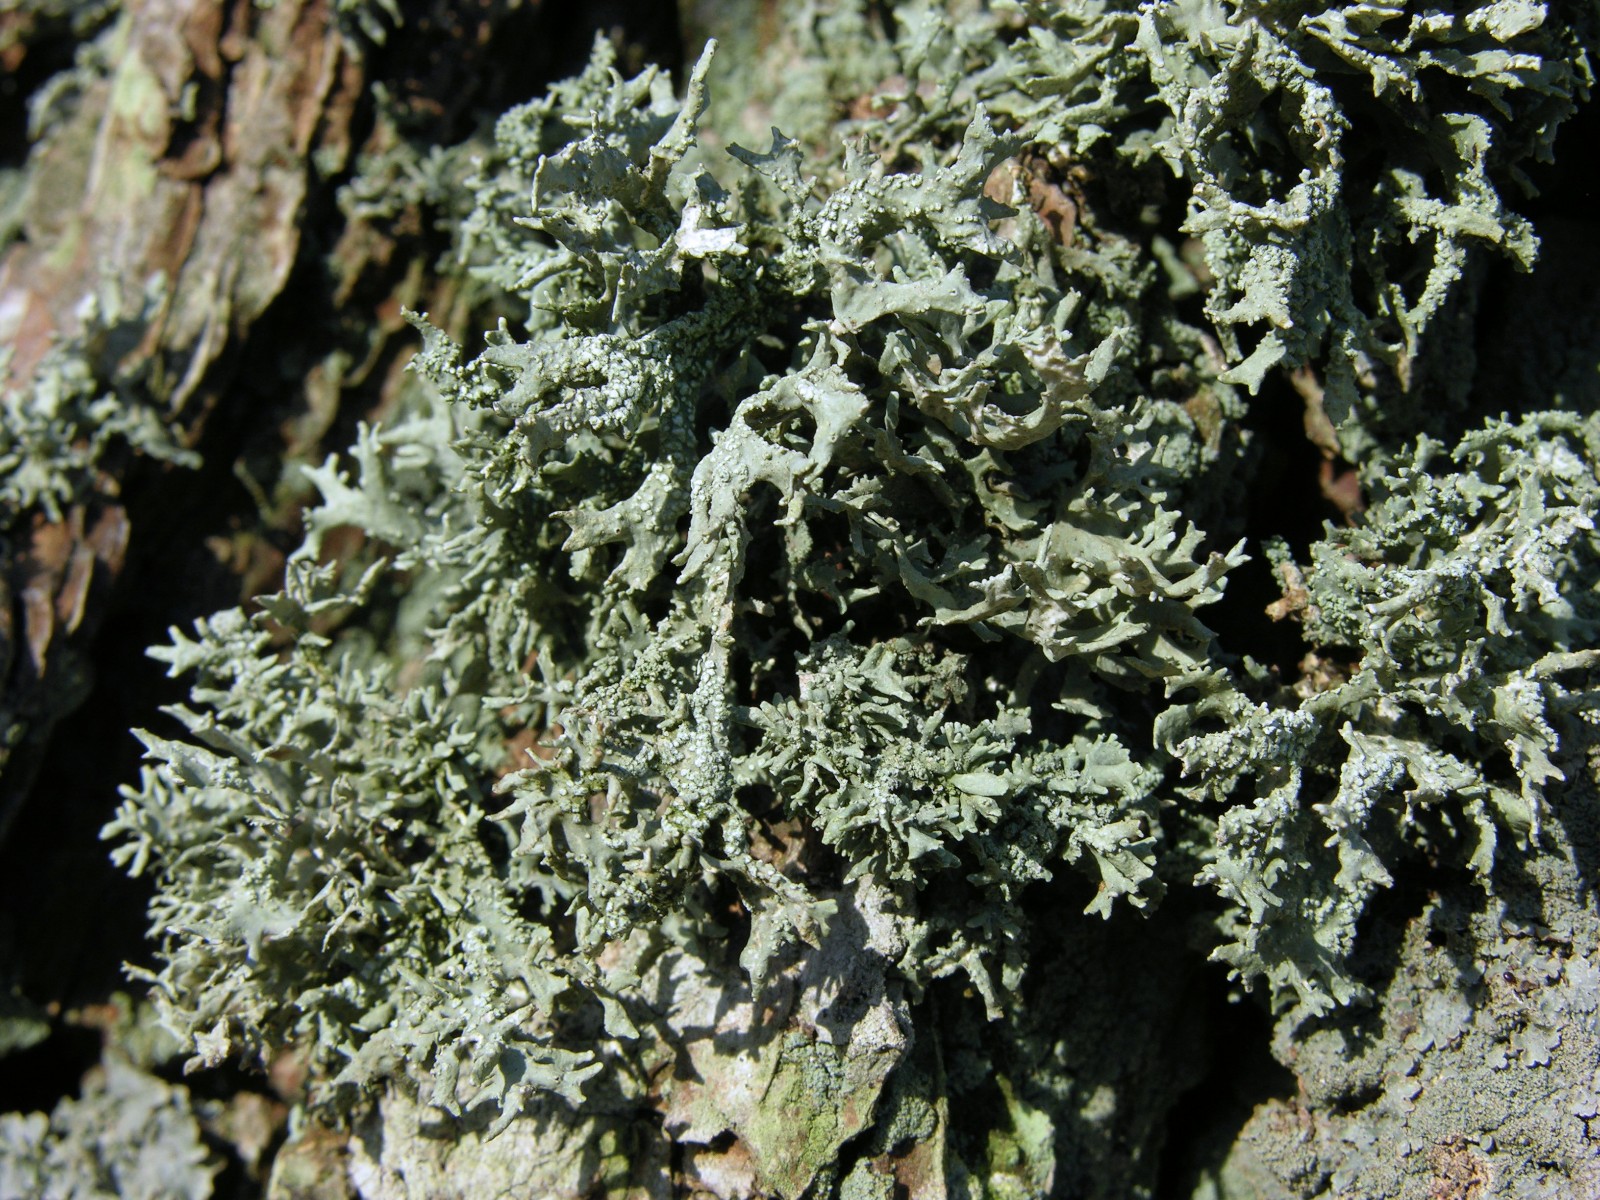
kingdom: Fungi
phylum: Ascomycota
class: Lecanoromycetes
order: Lecanorales
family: Parmeliaceae
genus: Evernia
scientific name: Evernia prunastri
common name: almindelig slåenlav
